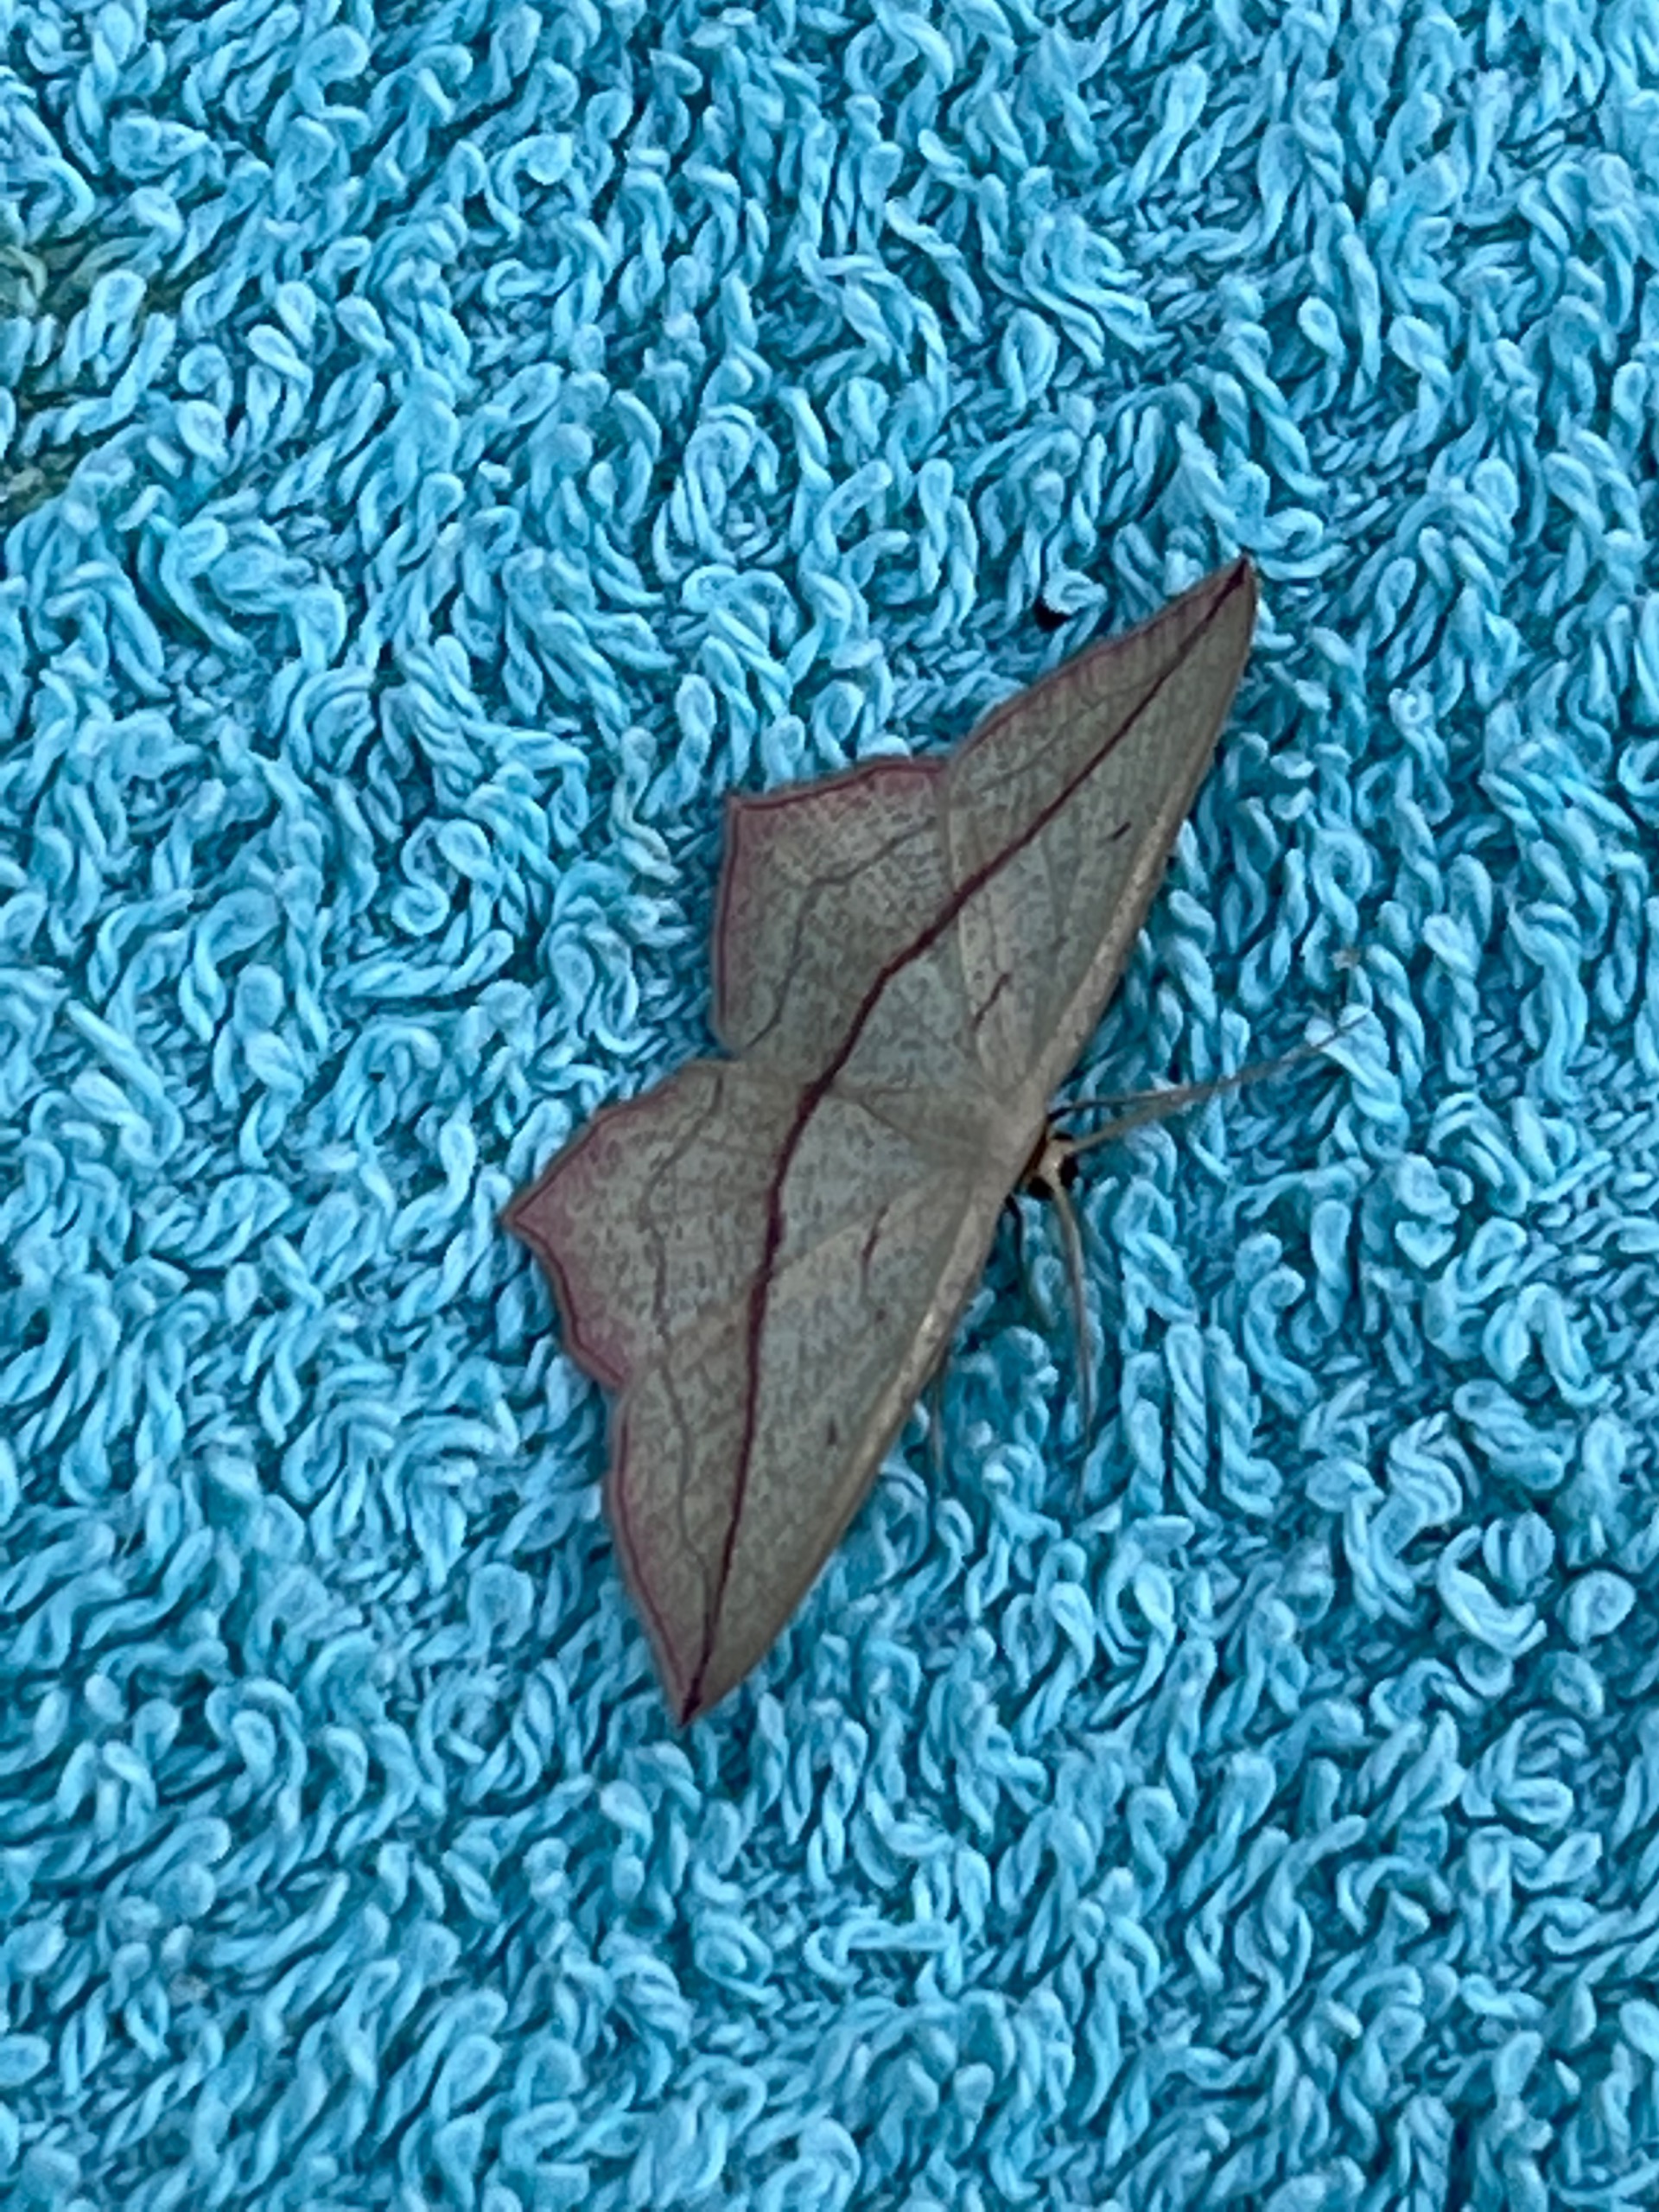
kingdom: Animalia
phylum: Arthropoda
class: Insecta
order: Lepidoptera
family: Geometridae
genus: Timandra
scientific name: Timandra comae
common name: Gul syremåler
